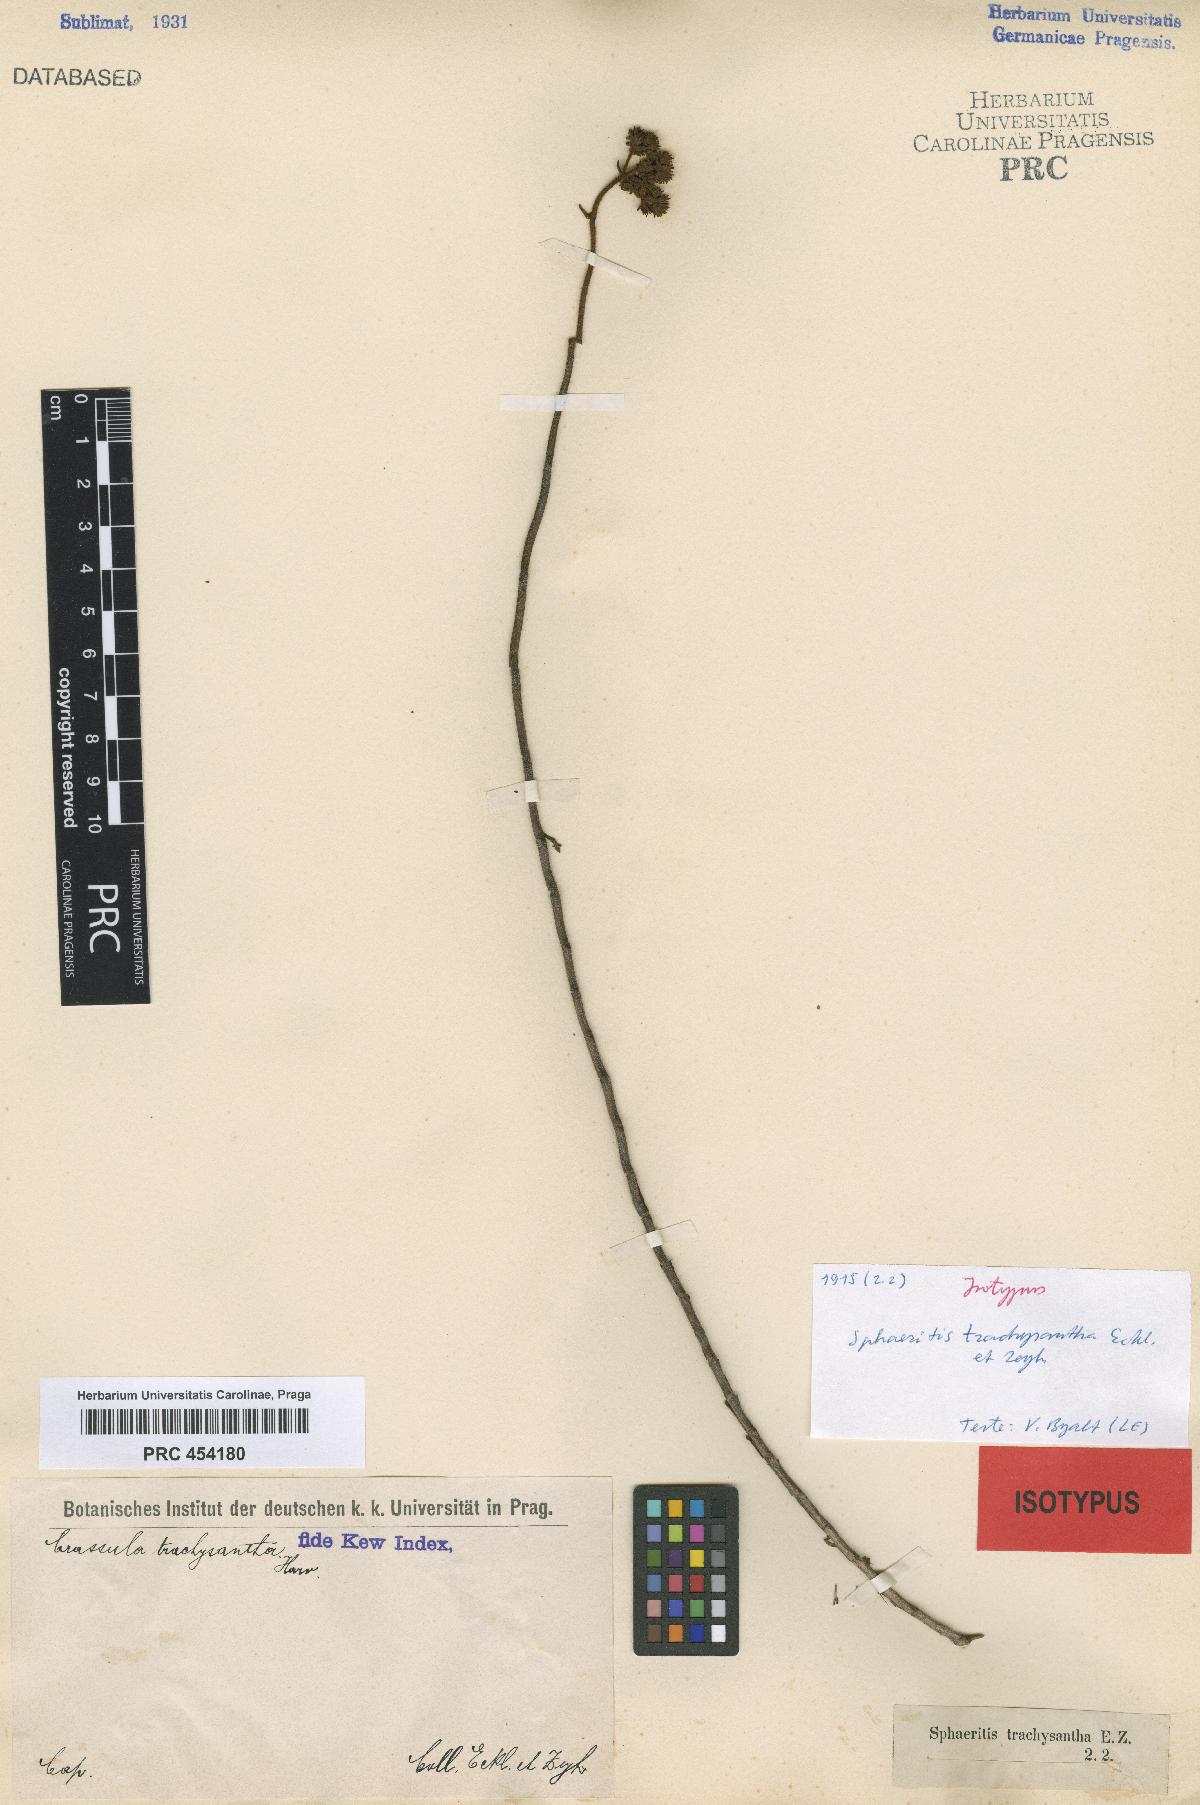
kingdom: Plantae
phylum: Tracheophyta
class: Magnoliopsida
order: Saxifragales
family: Crassulaceae
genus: Crassula
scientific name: Crassula mesembryanthemoides
